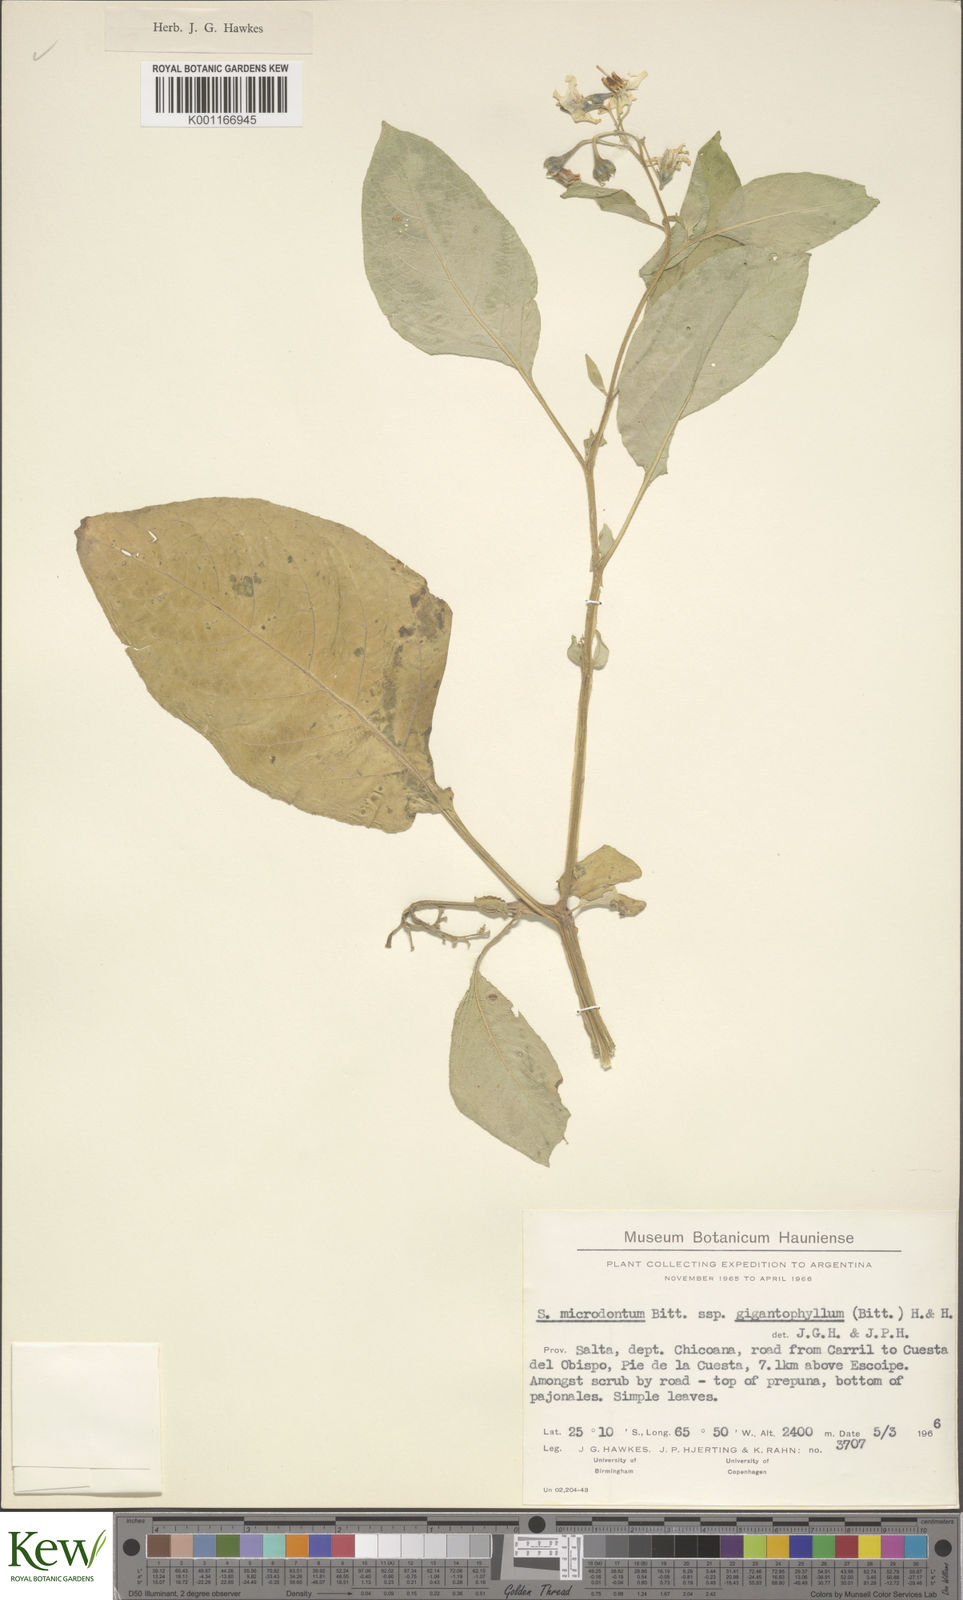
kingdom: Plantae
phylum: Tracheophyta
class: Magnoliopsida
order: Solanales
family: Solanaceae
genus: Solanum
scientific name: Solanum microdontum
